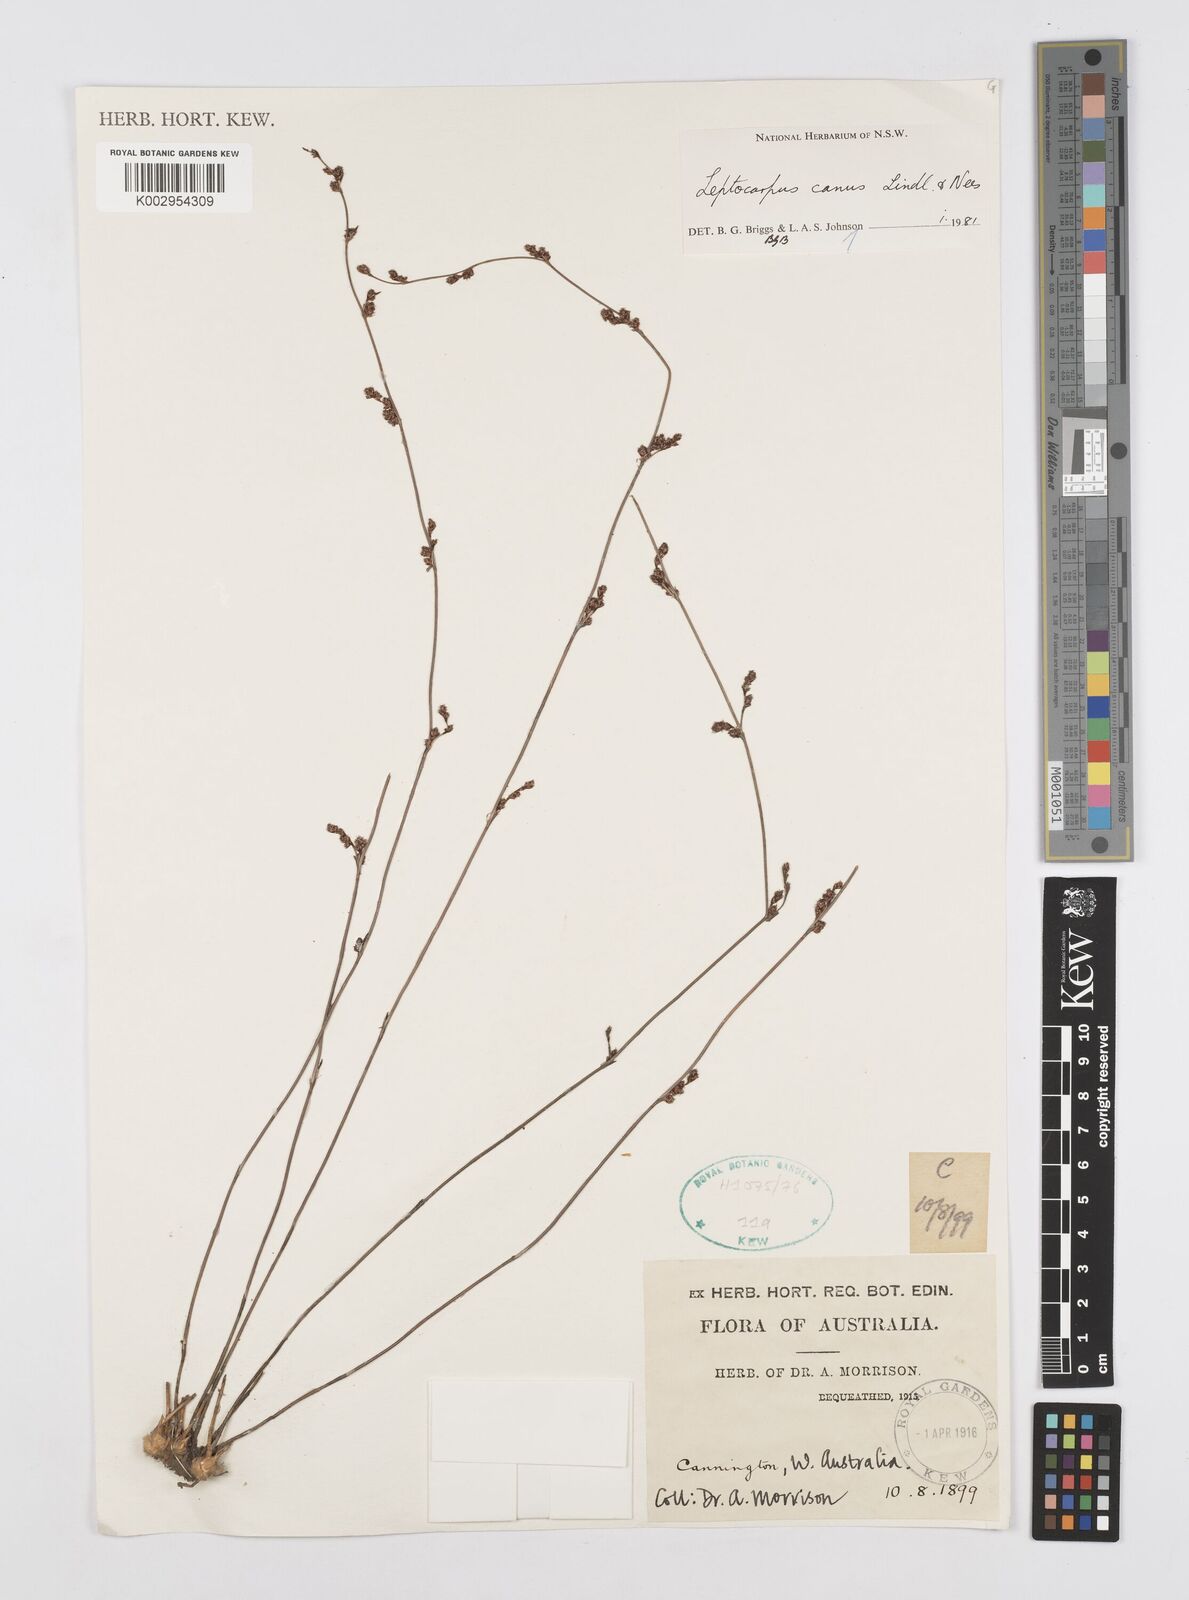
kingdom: Plantae
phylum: Tracheophyta
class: Liliopsida
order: Poales
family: Restionaceae
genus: Leptocarpus
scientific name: Leptocarpus canus
